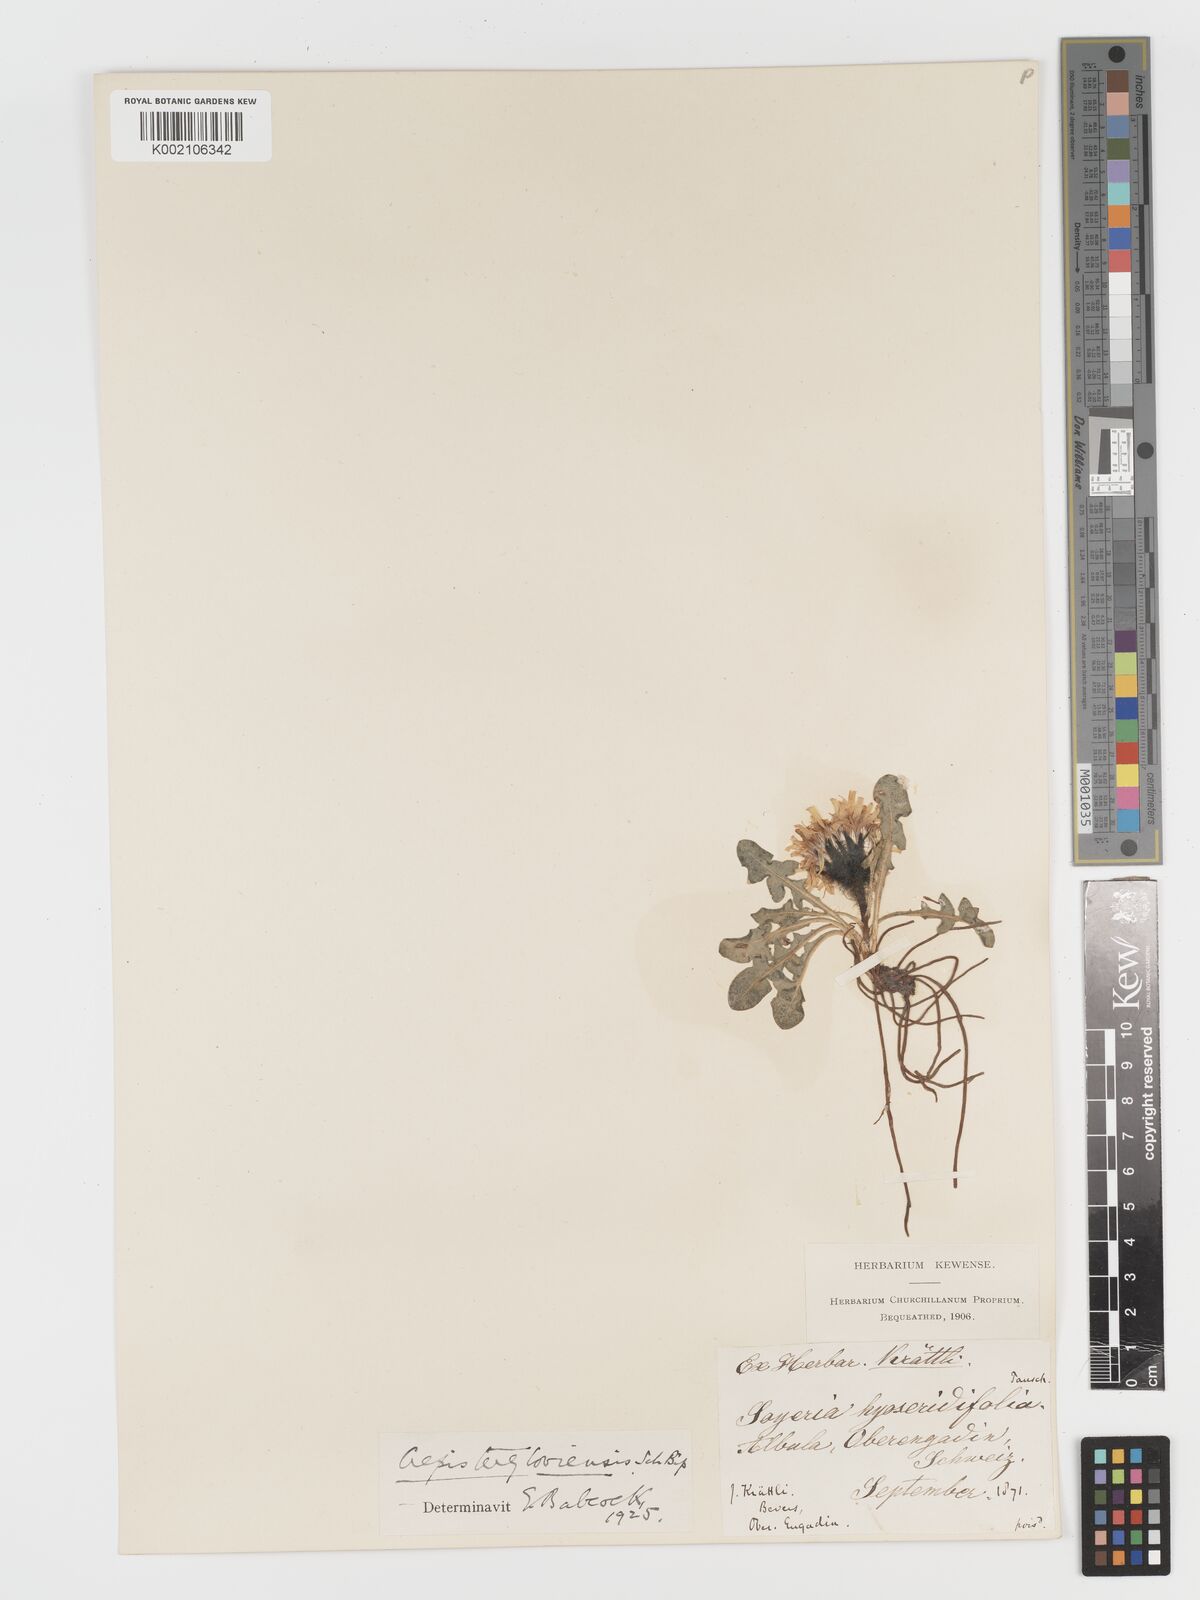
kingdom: Plantae
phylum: Tracheophyta
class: Magnoliopsida
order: Asterales
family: Asteraceae
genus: Crepis
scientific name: Crepis
